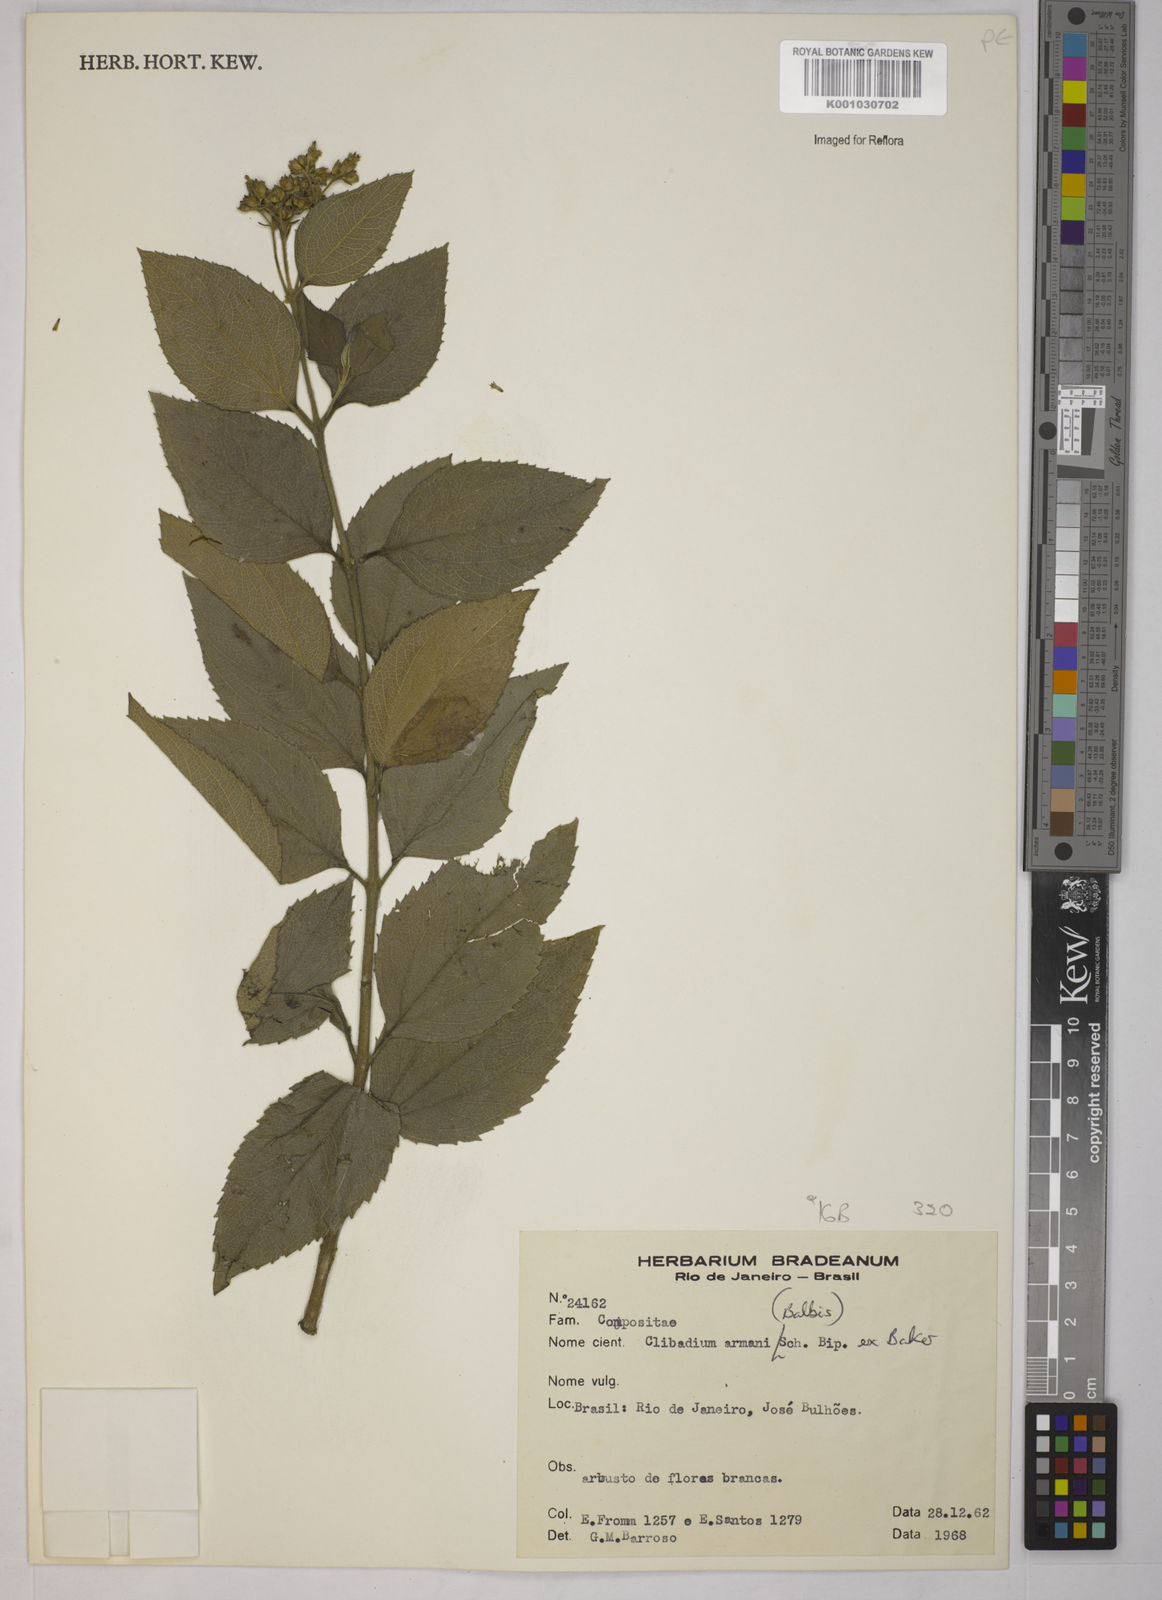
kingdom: Plantae
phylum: Tracheophyta
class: Magnoliopsida
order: Asterales
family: Asteraceae
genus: Clibadium
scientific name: Clibadium armanii
